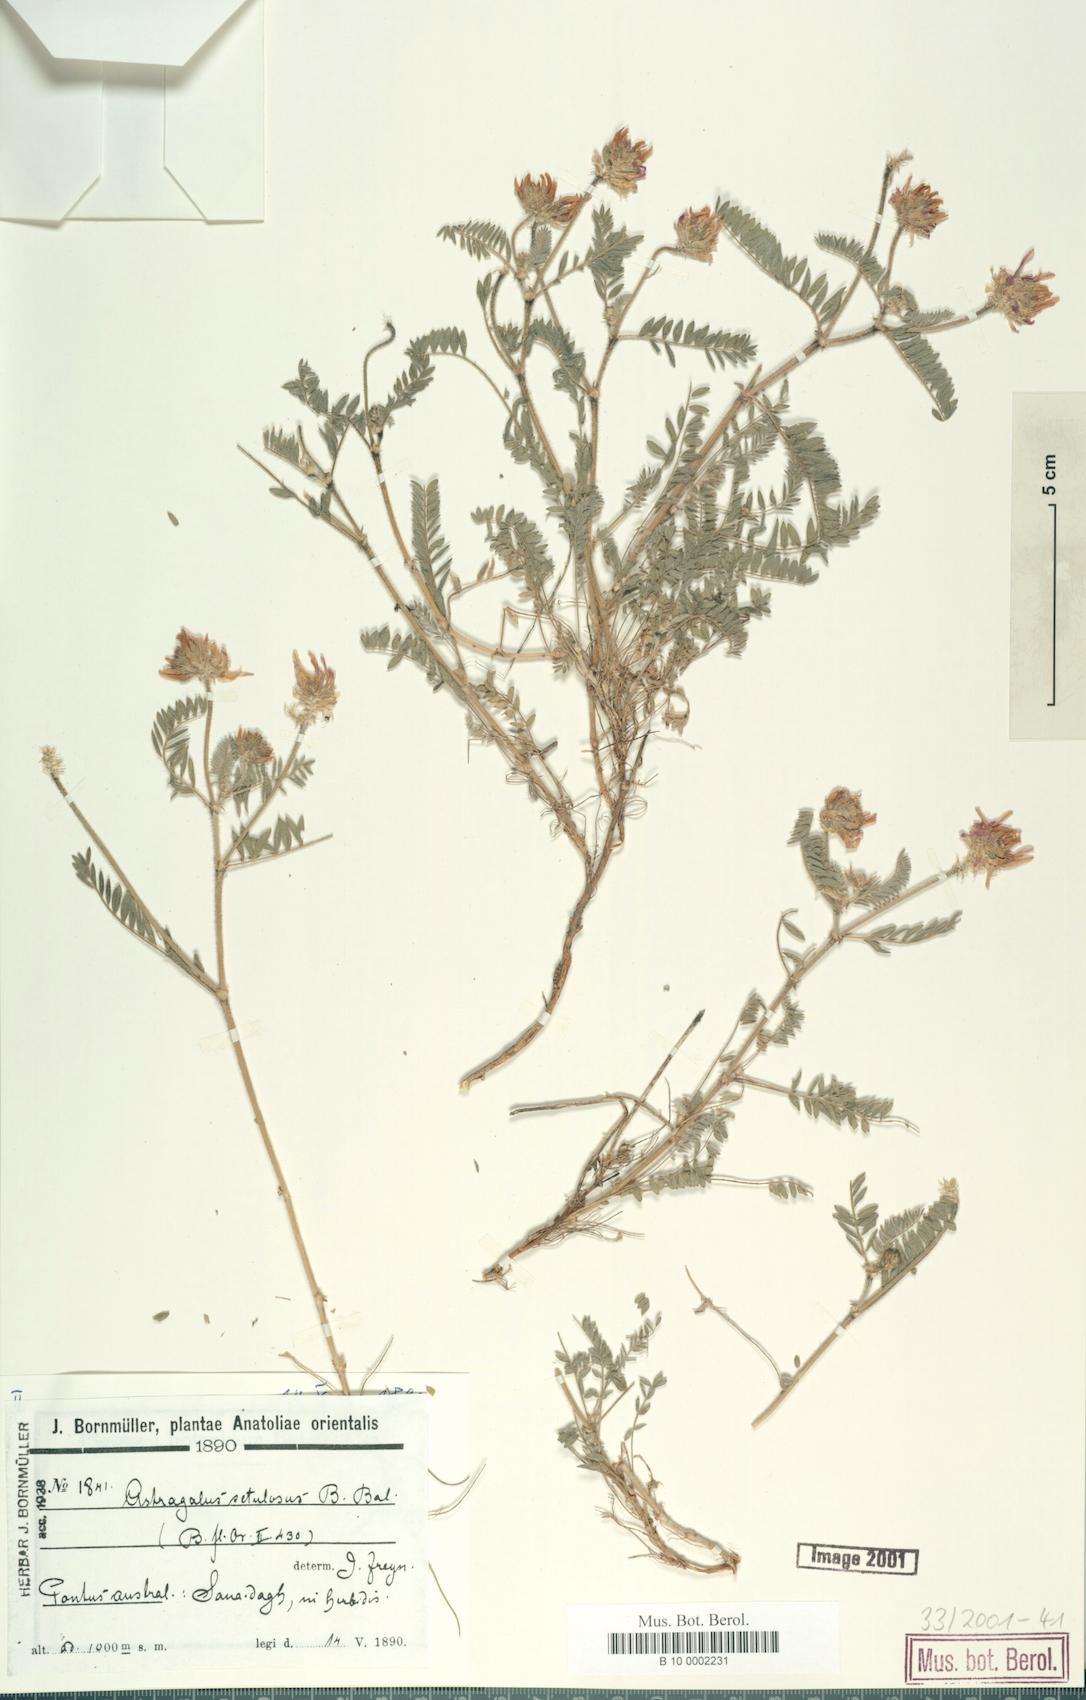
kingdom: Plantae
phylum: Tracheophyta
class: Magnoliopsida
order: Fabales
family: Fabaceae
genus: Astragalus
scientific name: Astragalus setulosus
